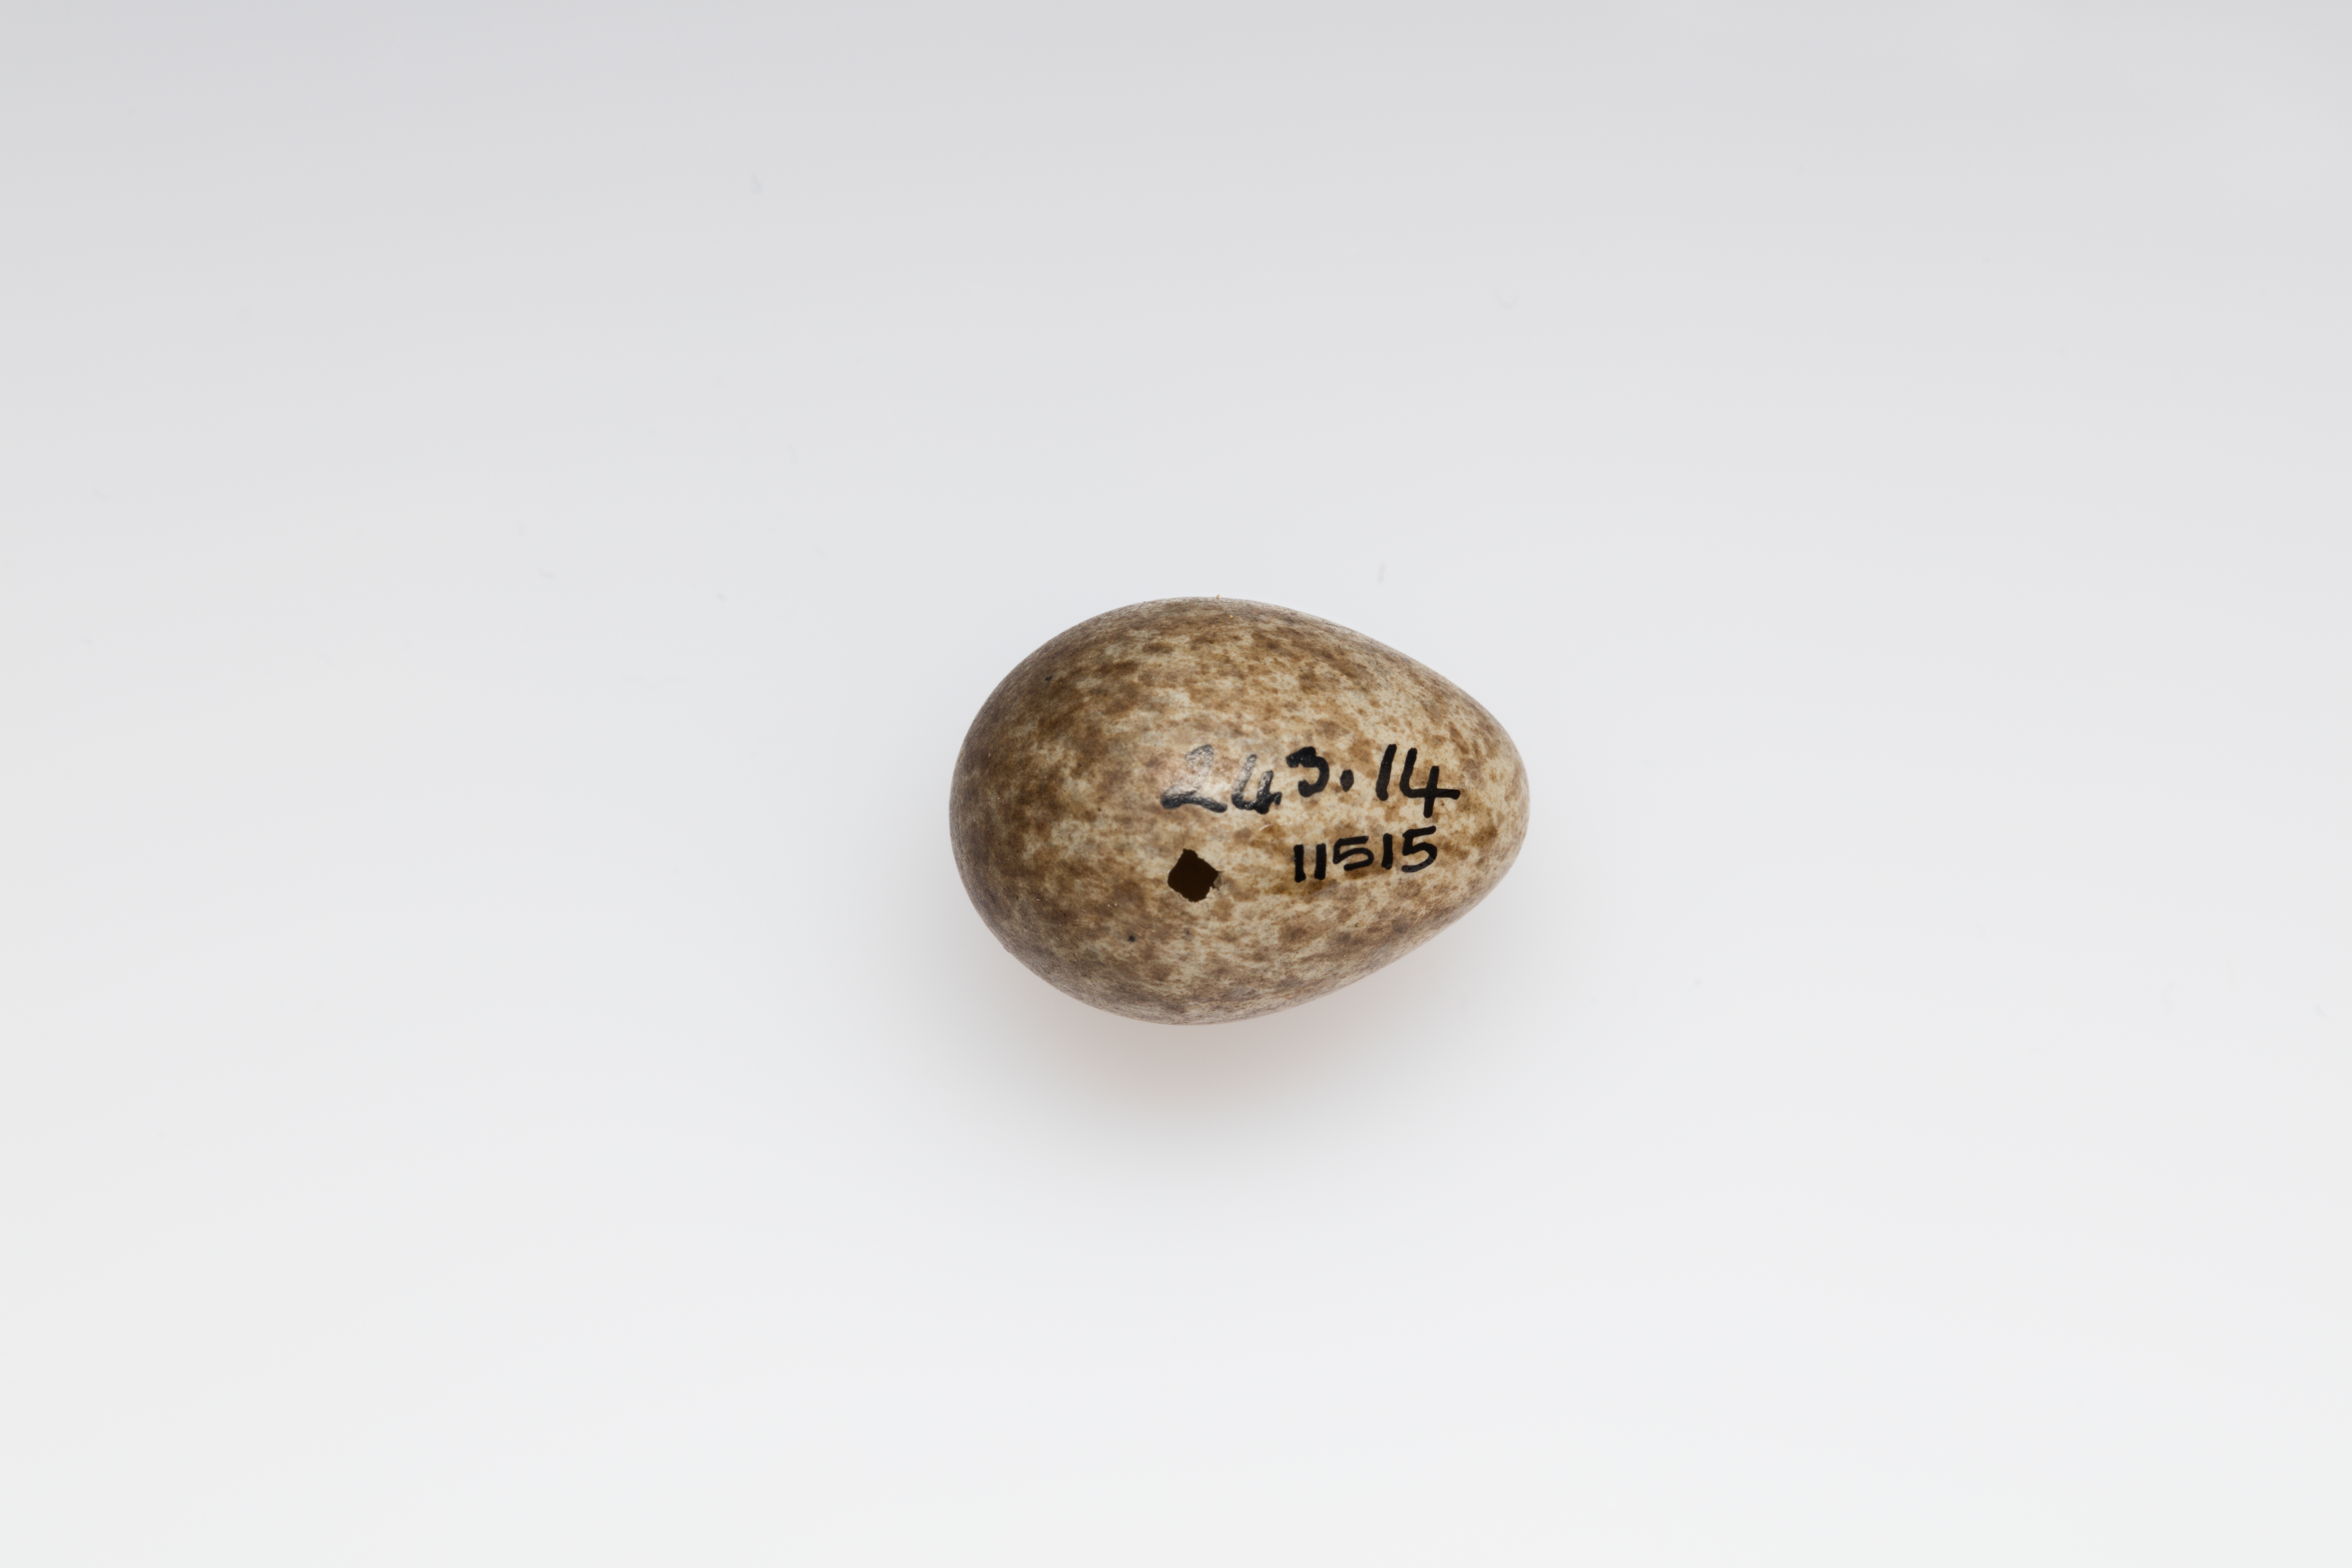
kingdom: Animalia
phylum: Chordata
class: Aves
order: Passeriformes
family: Alaudidae
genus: Alauda
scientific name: Alauda arvensis
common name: Eurasian skylark
